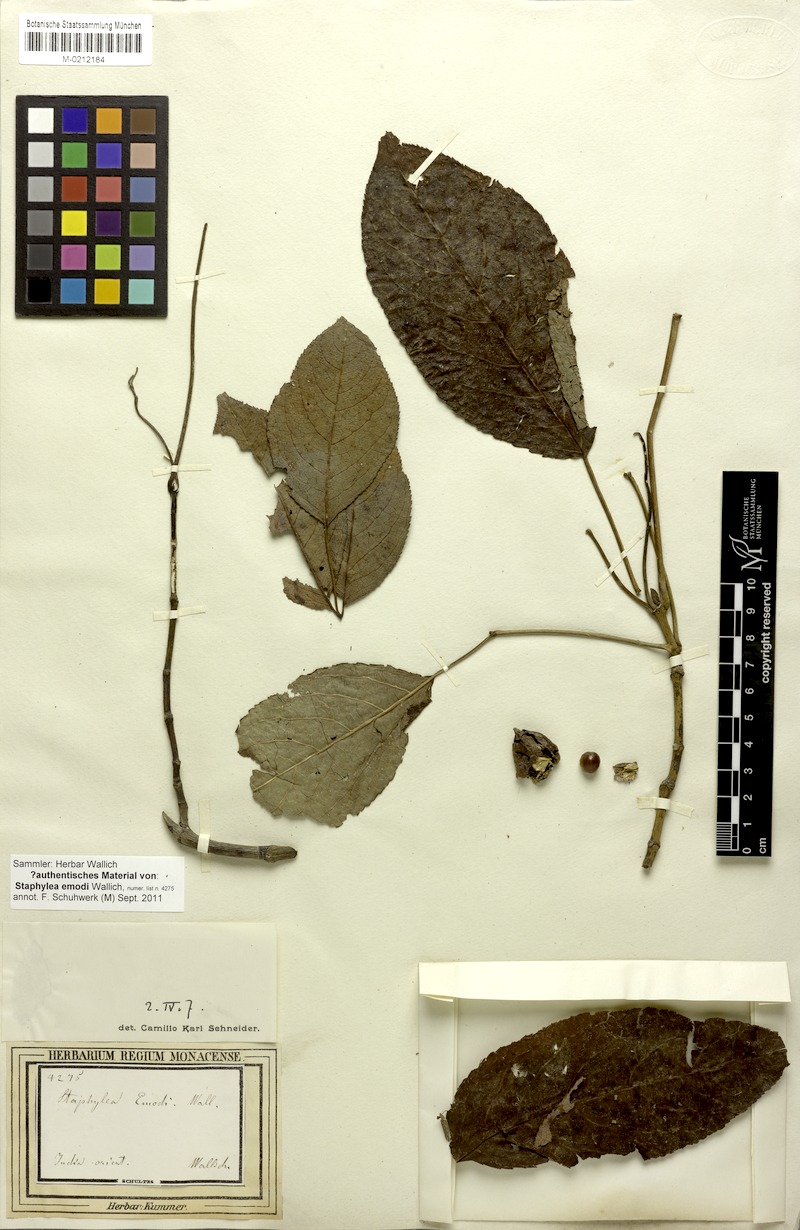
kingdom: Plantae
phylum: Tracheophyta
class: Magnoliopsida
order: Crossosomatales
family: Staphyleaceae
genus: Staphylea
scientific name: Staphylea emodi
